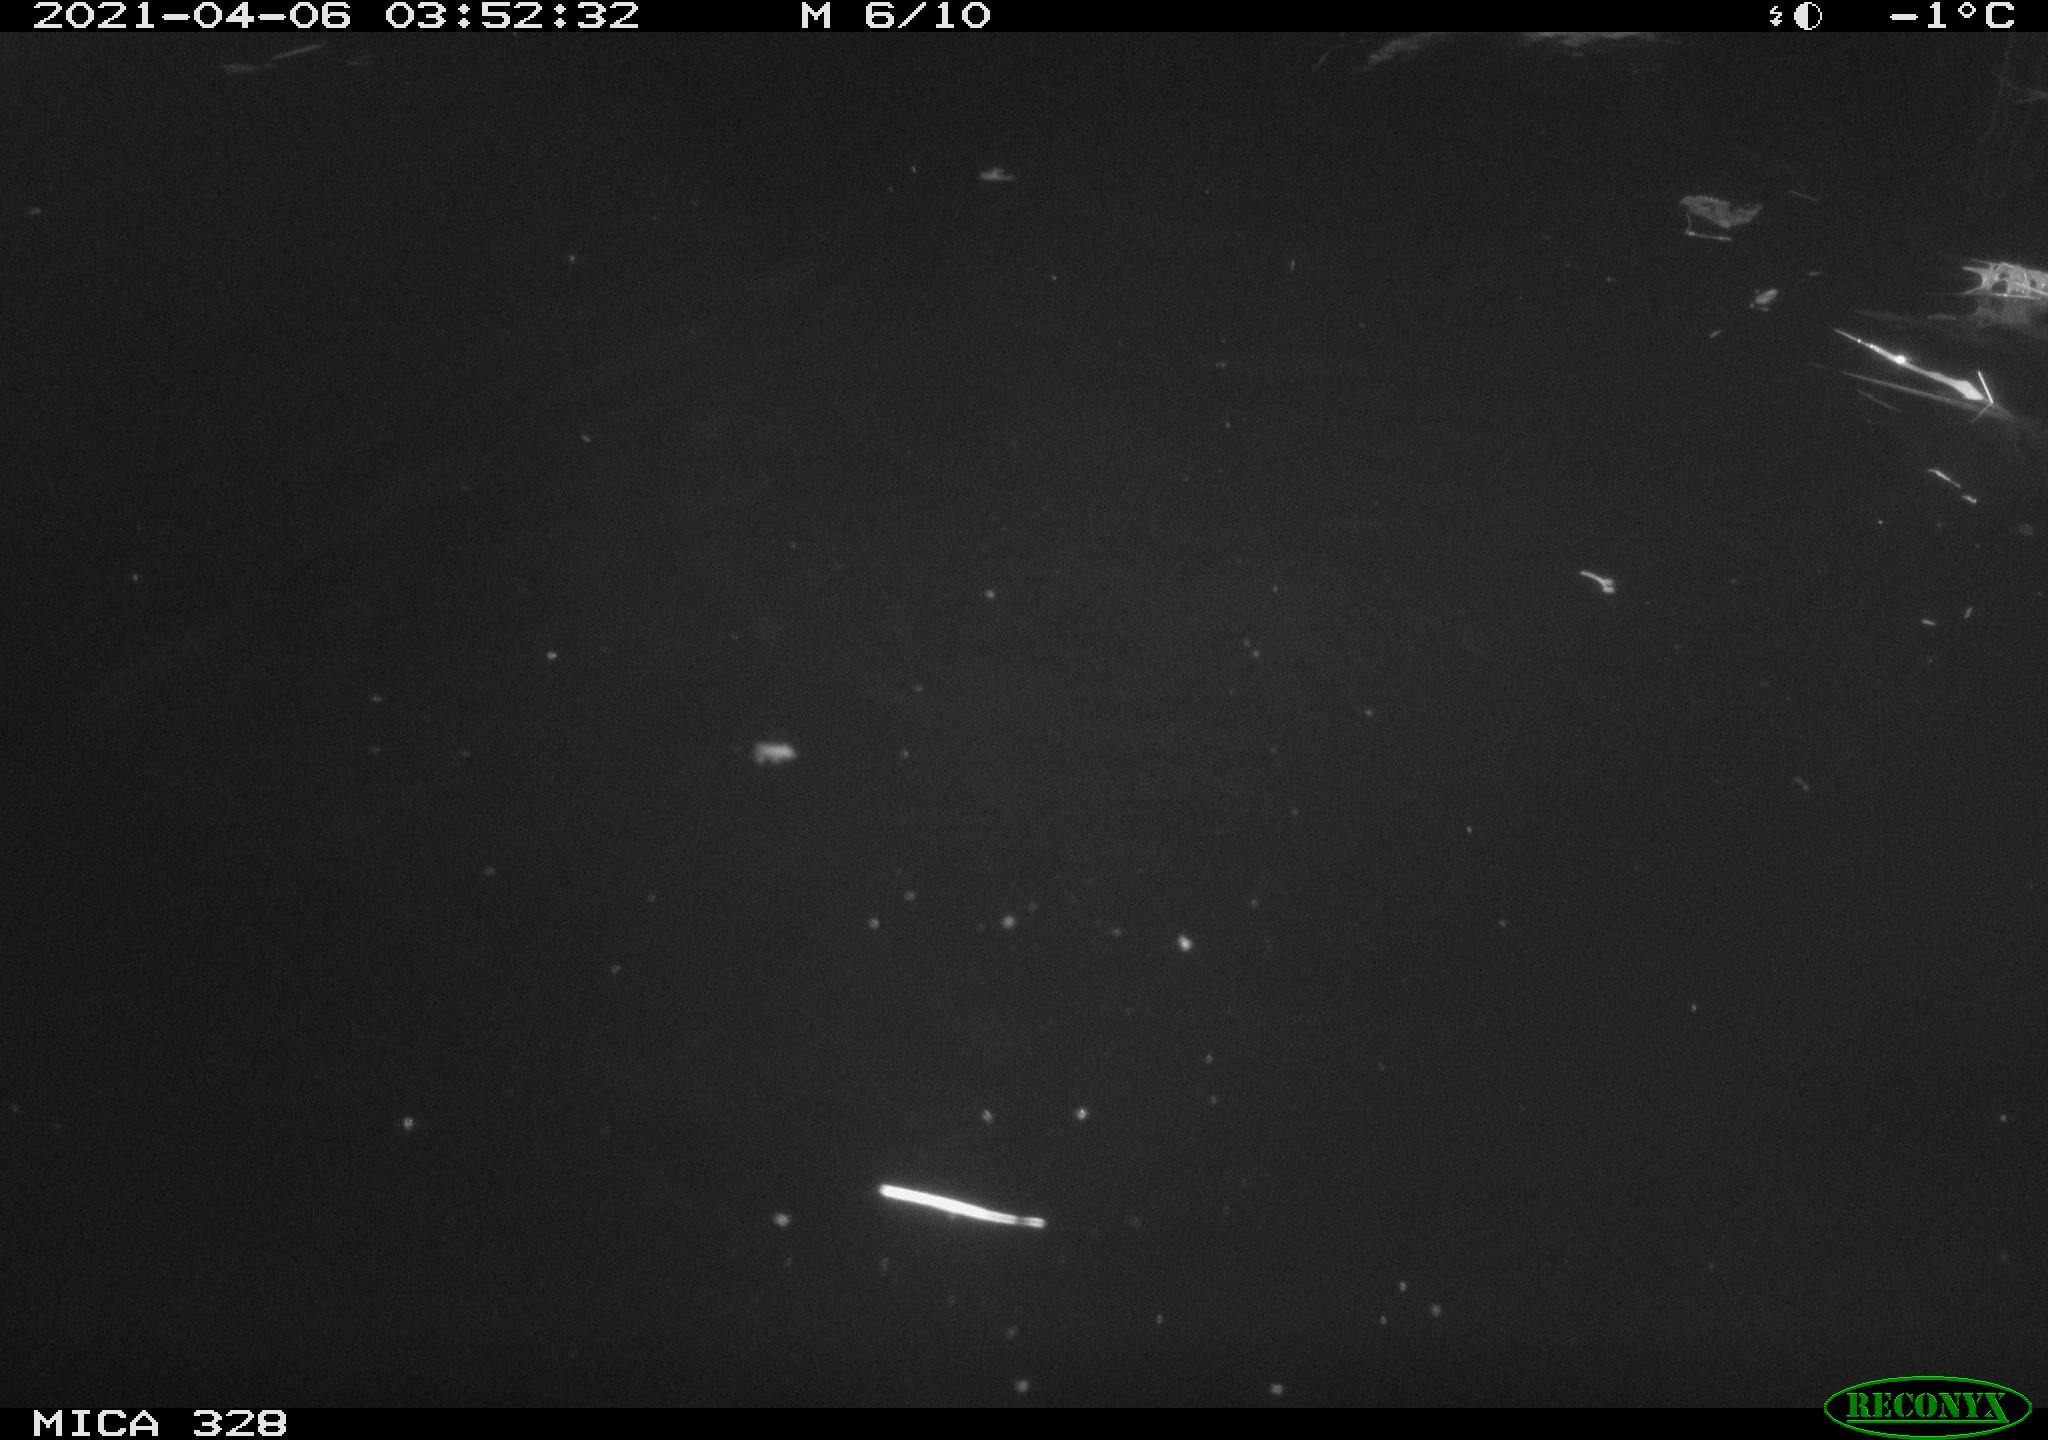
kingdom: Animalia
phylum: Chordata
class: Mammalia
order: Rodentia
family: Cricetidae
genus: Ondatra
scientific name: Ondatra zibethicus
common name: Muskrat
